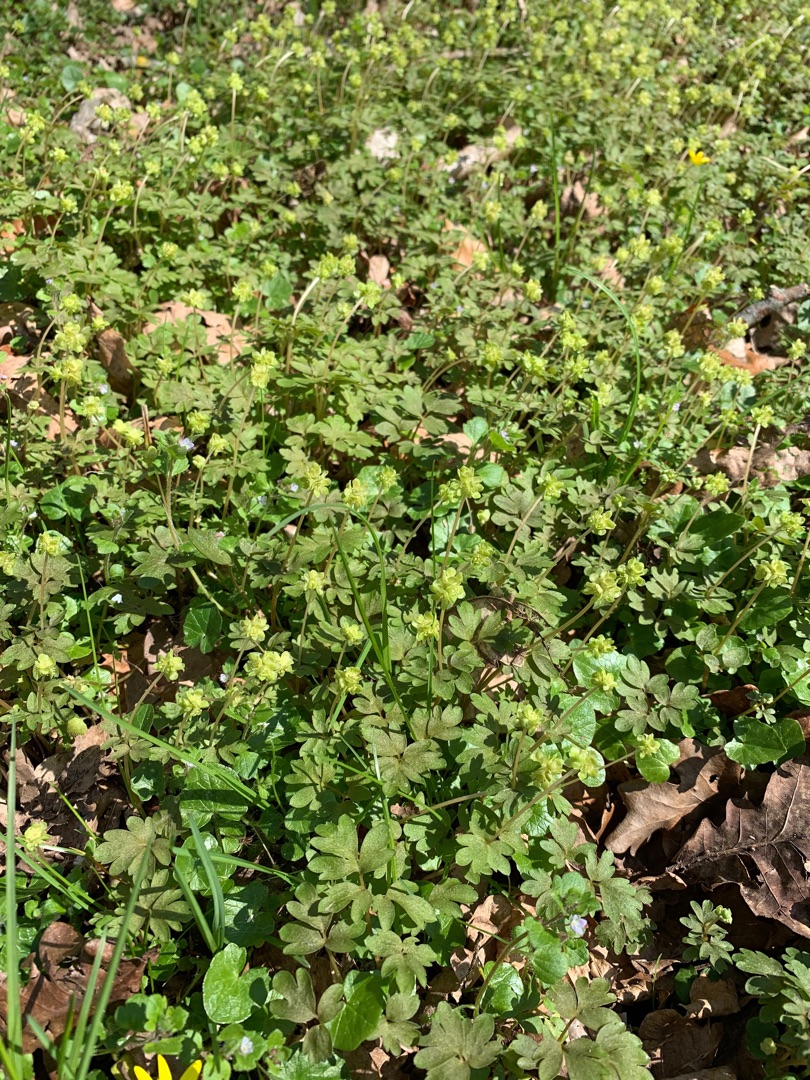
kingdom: Plantae
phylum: Tracheophyta
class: Magnoliopsida
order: Dipsacales
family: Viburnaceae
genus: Adoxa
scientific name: Adoxa moschatellina
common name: Desmerurt
